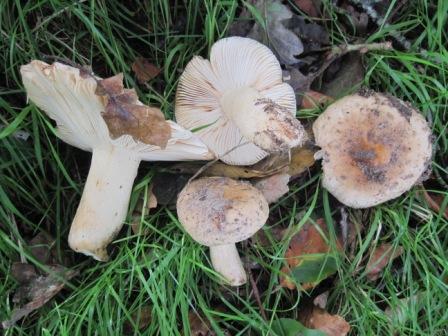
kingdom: Fungi
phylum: Basidiomycota
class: Agaricomycetes
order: Russulales
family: Russulaceae
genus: Russula
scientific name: Russula fellea
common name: galde-skørhat
